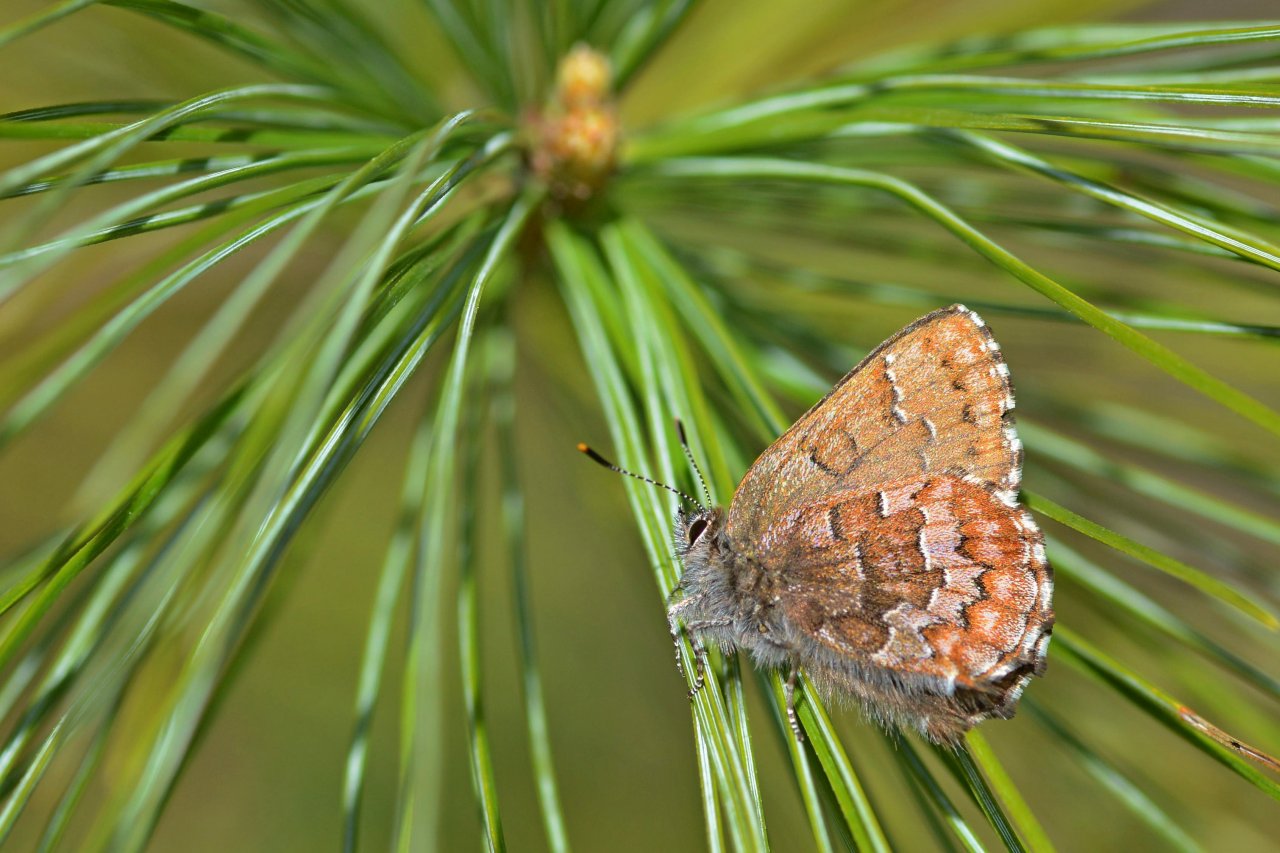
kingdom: Animalia
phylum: Arthropoda
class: Insecta
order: Lepidoptera
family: Lycaenidae
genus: Incisalia
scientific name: Incisalia niphon
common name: Eastern Pine Elfin
